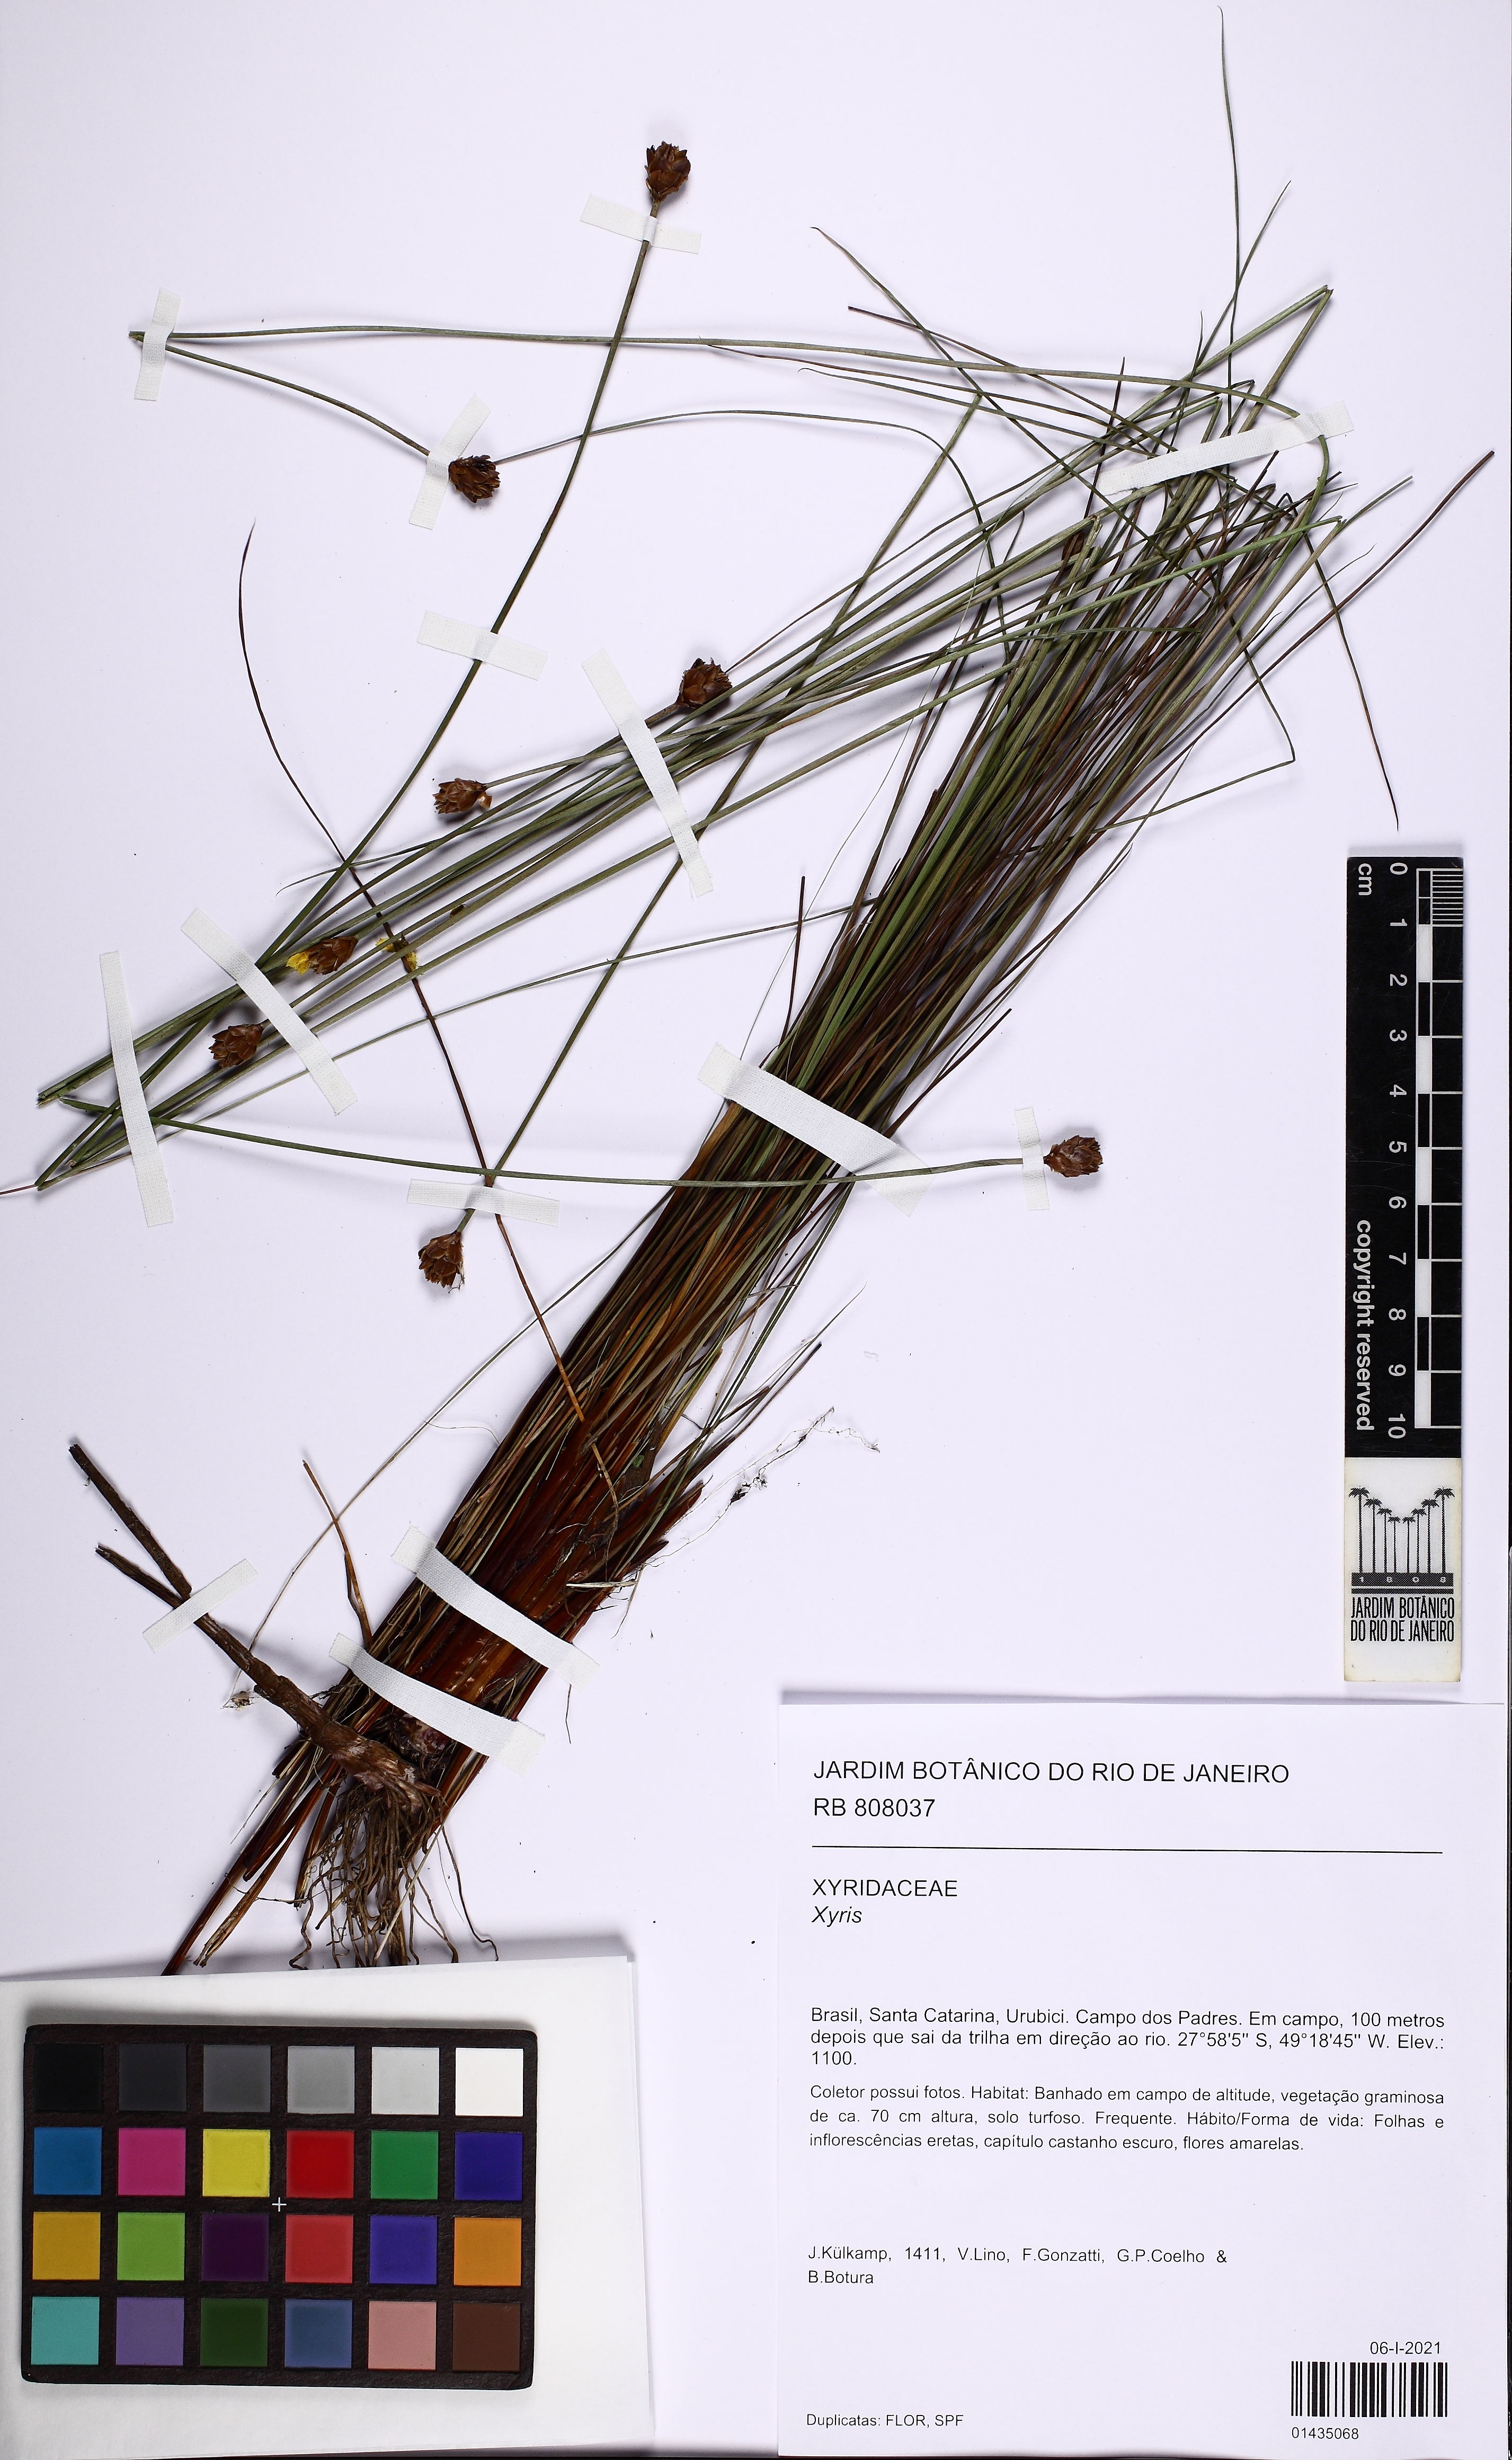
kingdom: Plantae
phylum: Tracheophyta
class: Liliopsida
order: Poales
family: Xyridaceae
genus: Xyris
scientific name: Xyris
